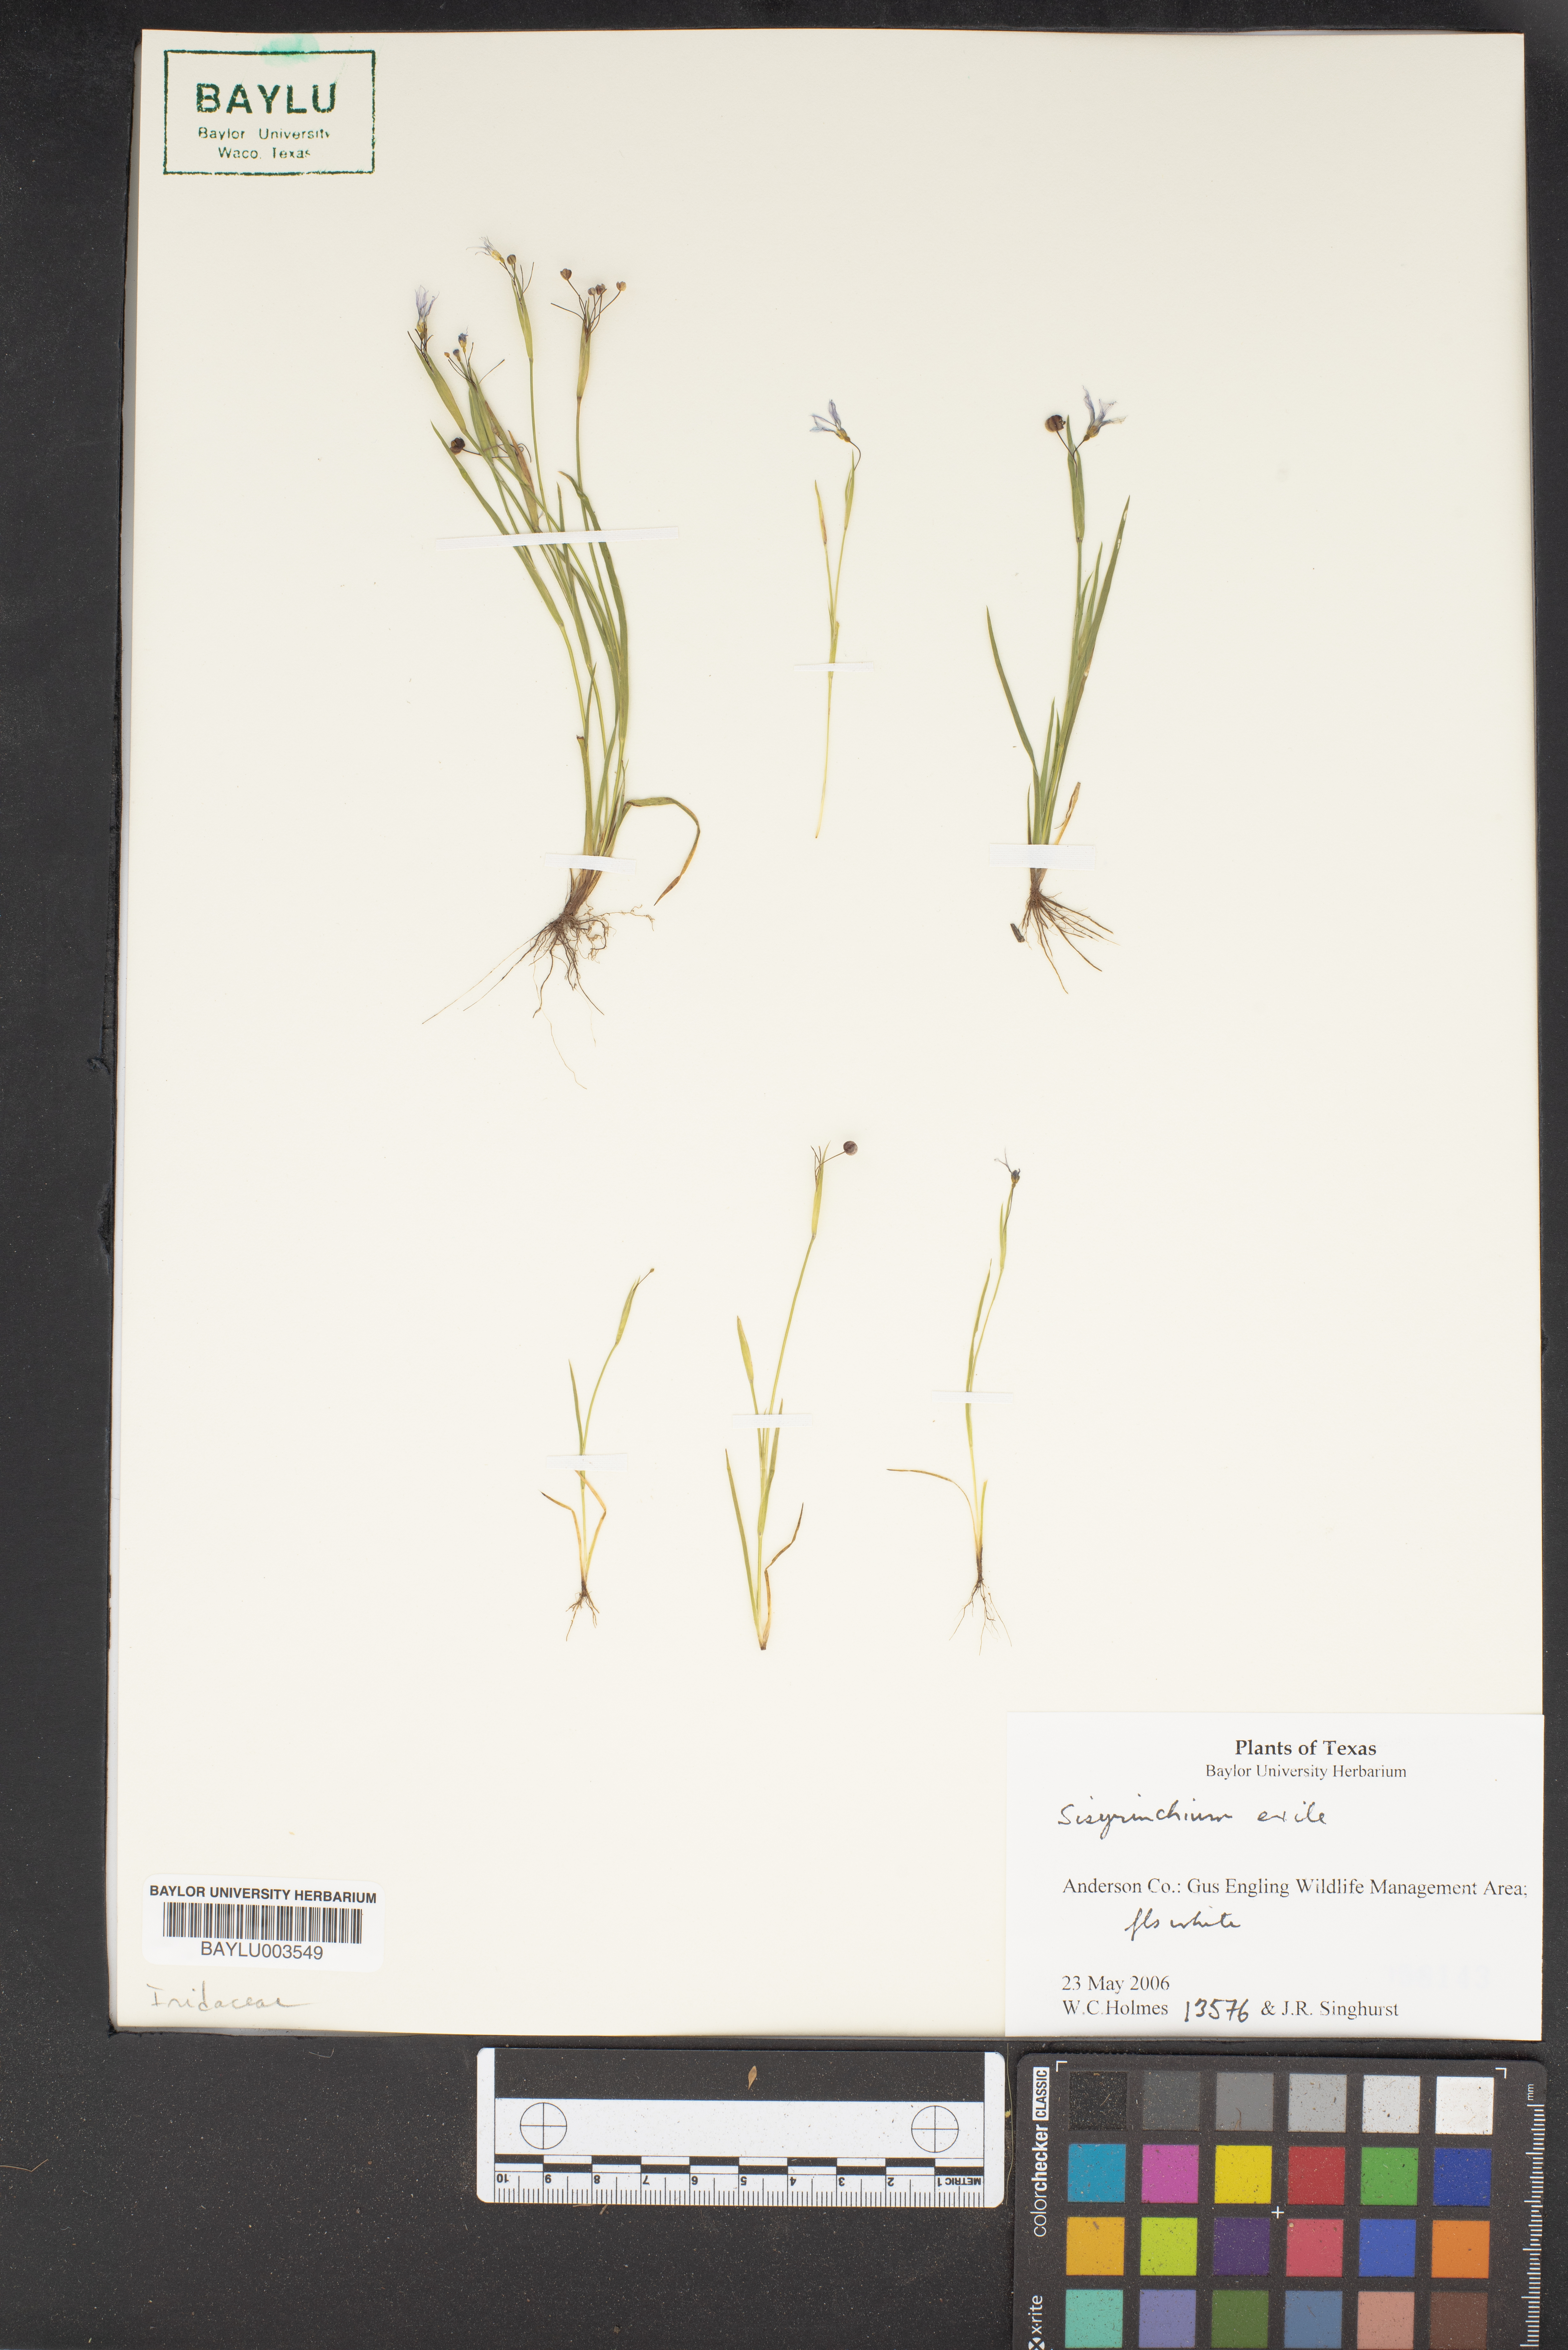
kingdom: Plantae
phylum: Tracheophyta
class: Liliopsida
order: Asparagales
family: Iridaceae
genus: Sisyrinchium
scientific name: Sisyrinchium rosulatum
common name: Annual blue-eyed grass
